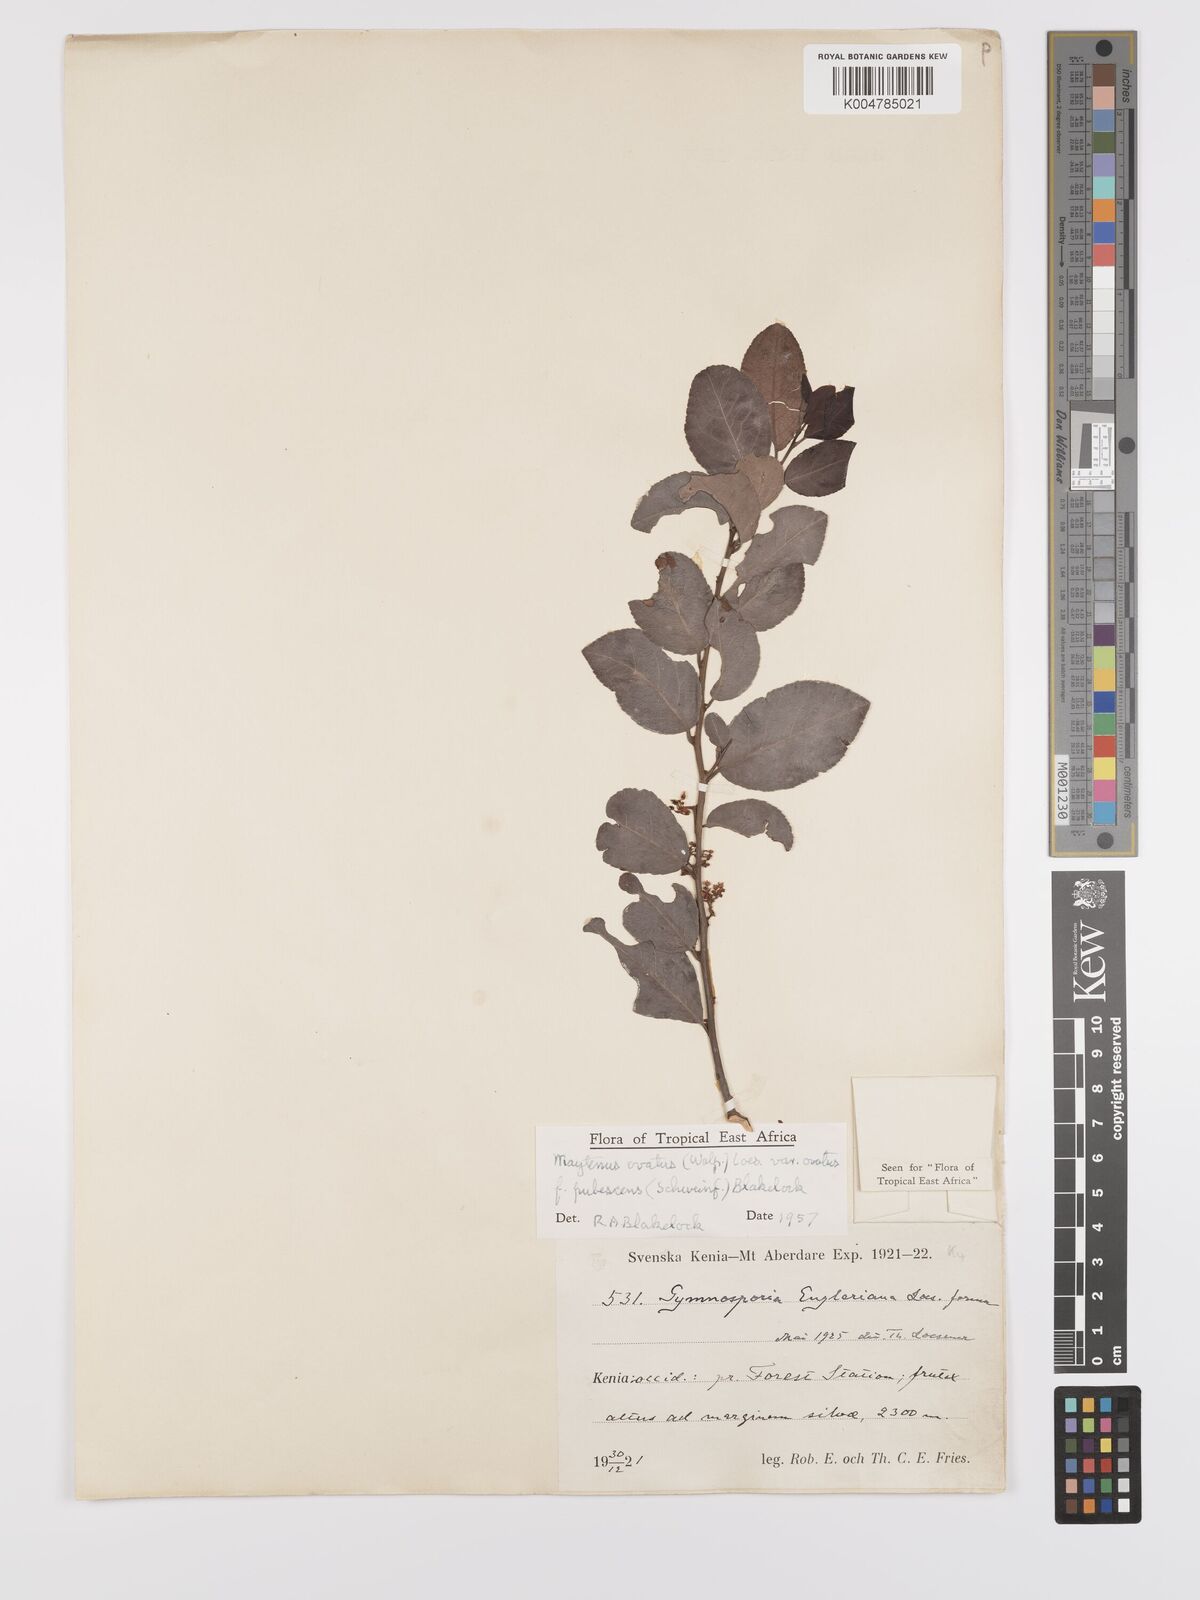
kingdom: Plantae
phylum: Tracheophyta
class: Magnoliopsida
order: Celastrales
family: Celastraceae
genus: Gymnosporia
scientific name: Gymnosporia buchananii
